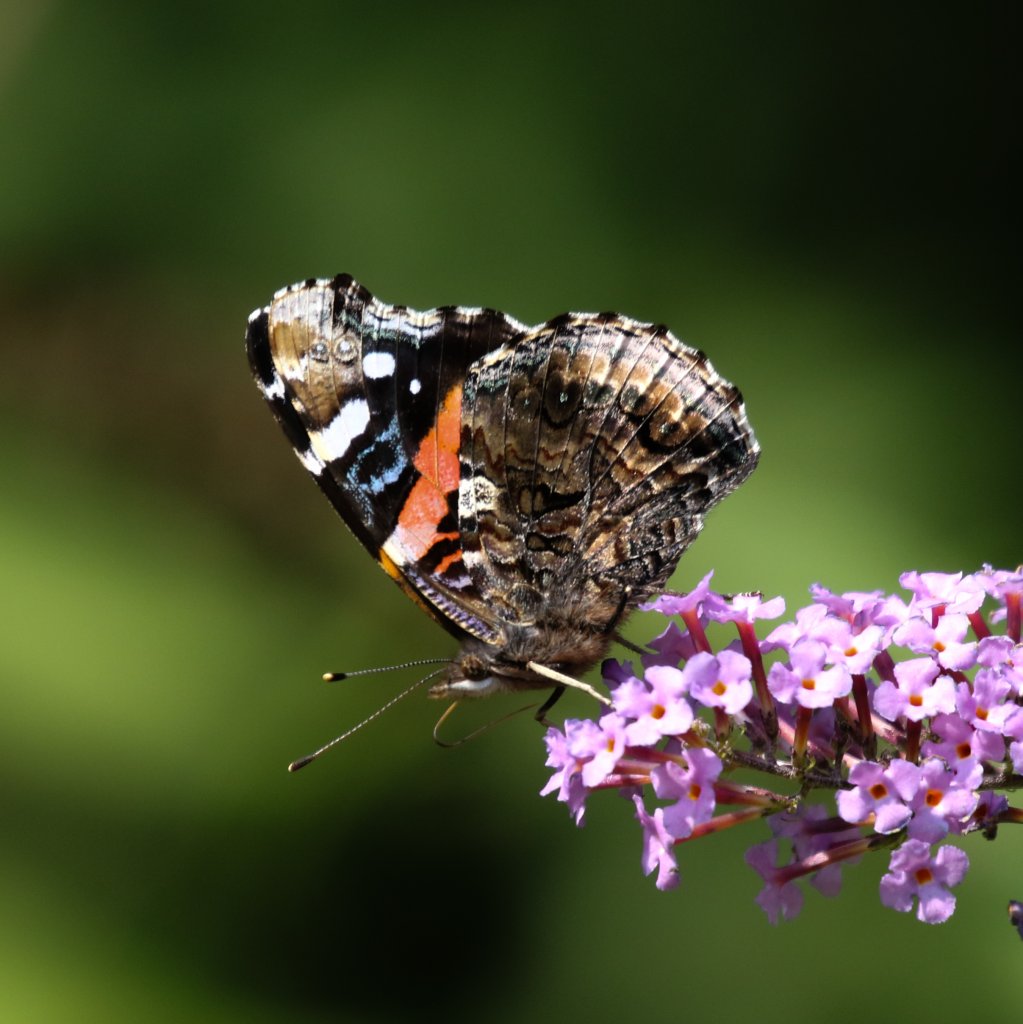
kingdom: Animalia
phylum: Arthropoda
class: Insecta
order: Lepidoptera
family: Nymphalidae
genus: Vanessa
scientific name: Vanessa atalanta
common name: Red Admiral
